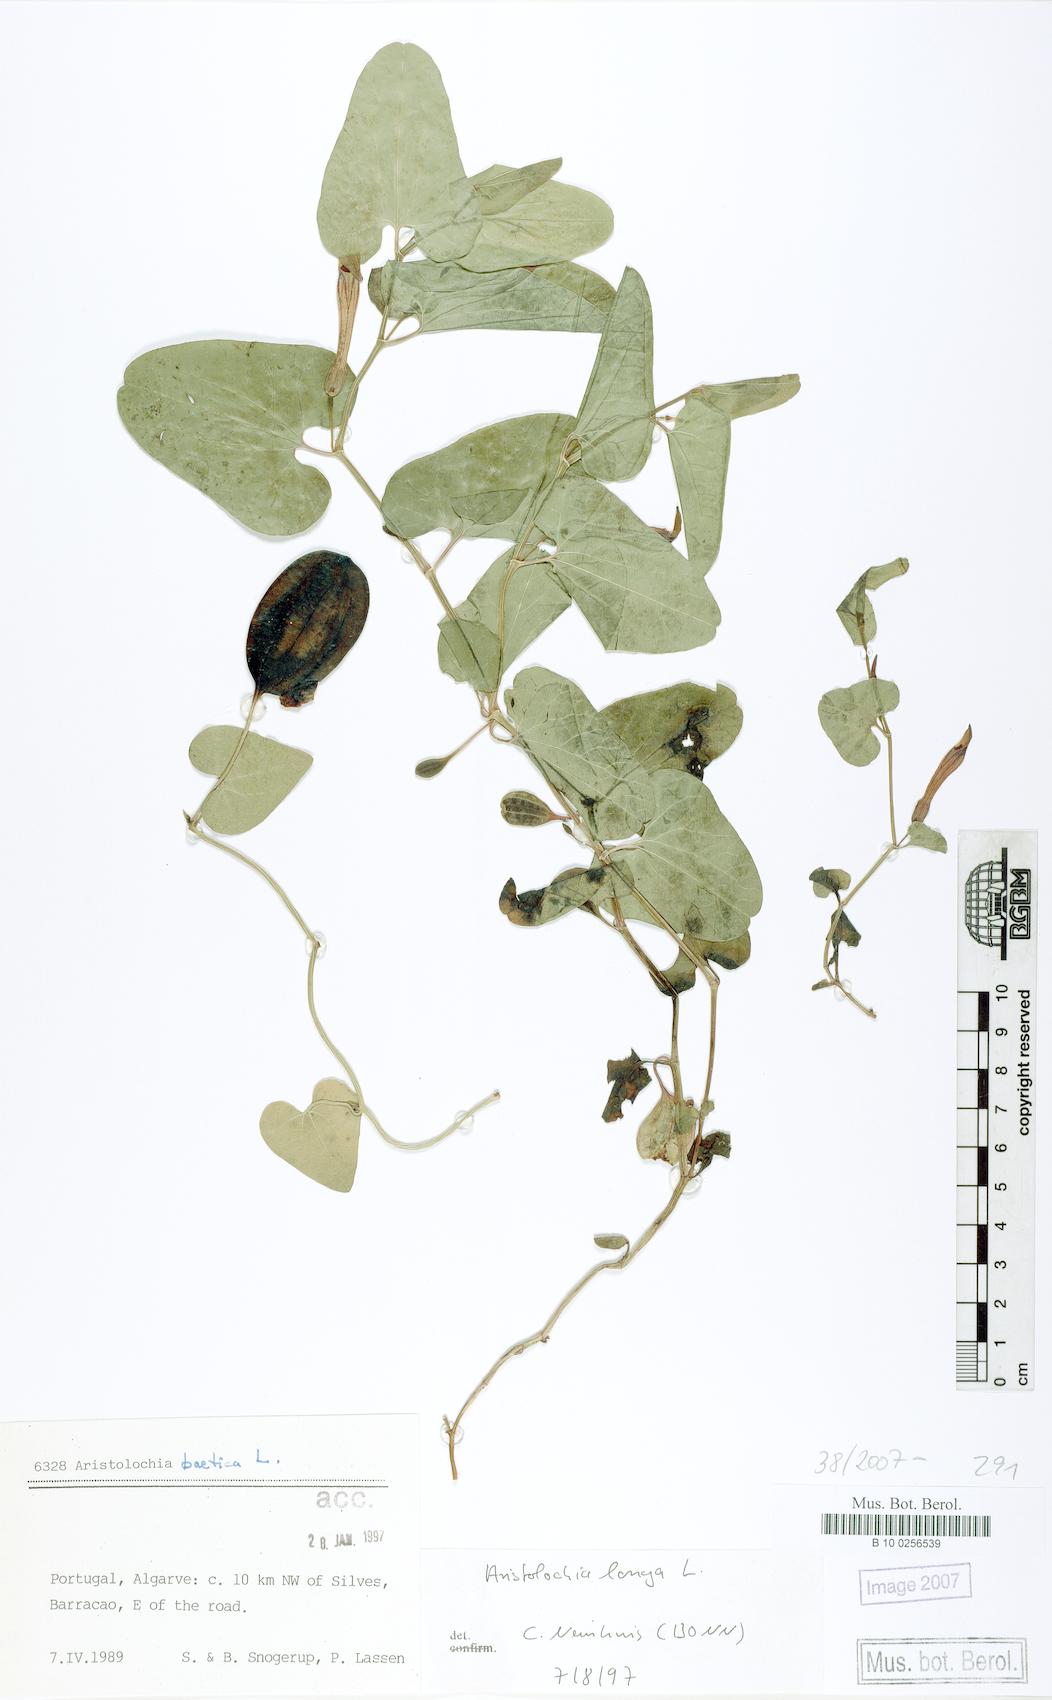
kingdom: Plantae
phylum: Tracheophyta
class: Magnoliopsida
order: Piperales
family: Aristolochiaceae
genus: Aristolochia
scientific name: Aristolochia fontanesii
